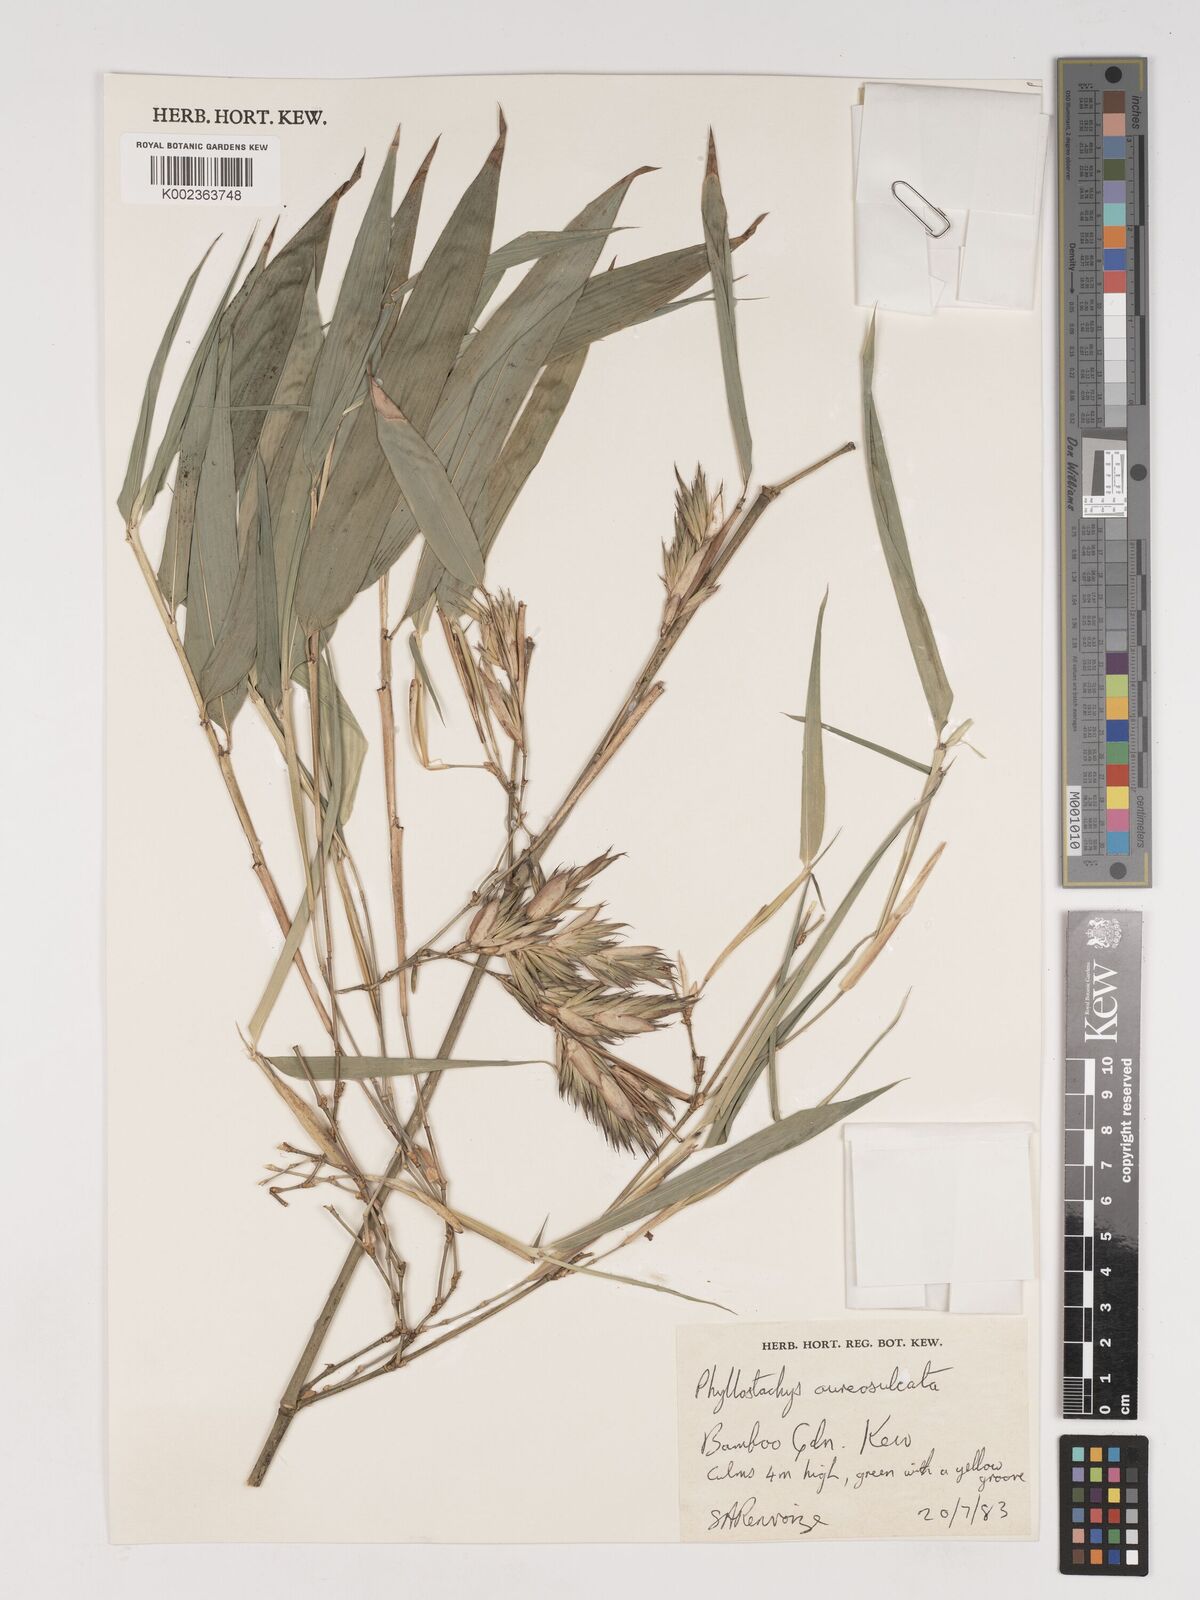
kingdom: Plantae
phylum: Tracheophyta
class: Liliopsida
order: Poales
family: Poaceae
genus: Phyllostachys
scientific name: Phyllostachys aureosulcata
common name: Yellow groove bamboo
